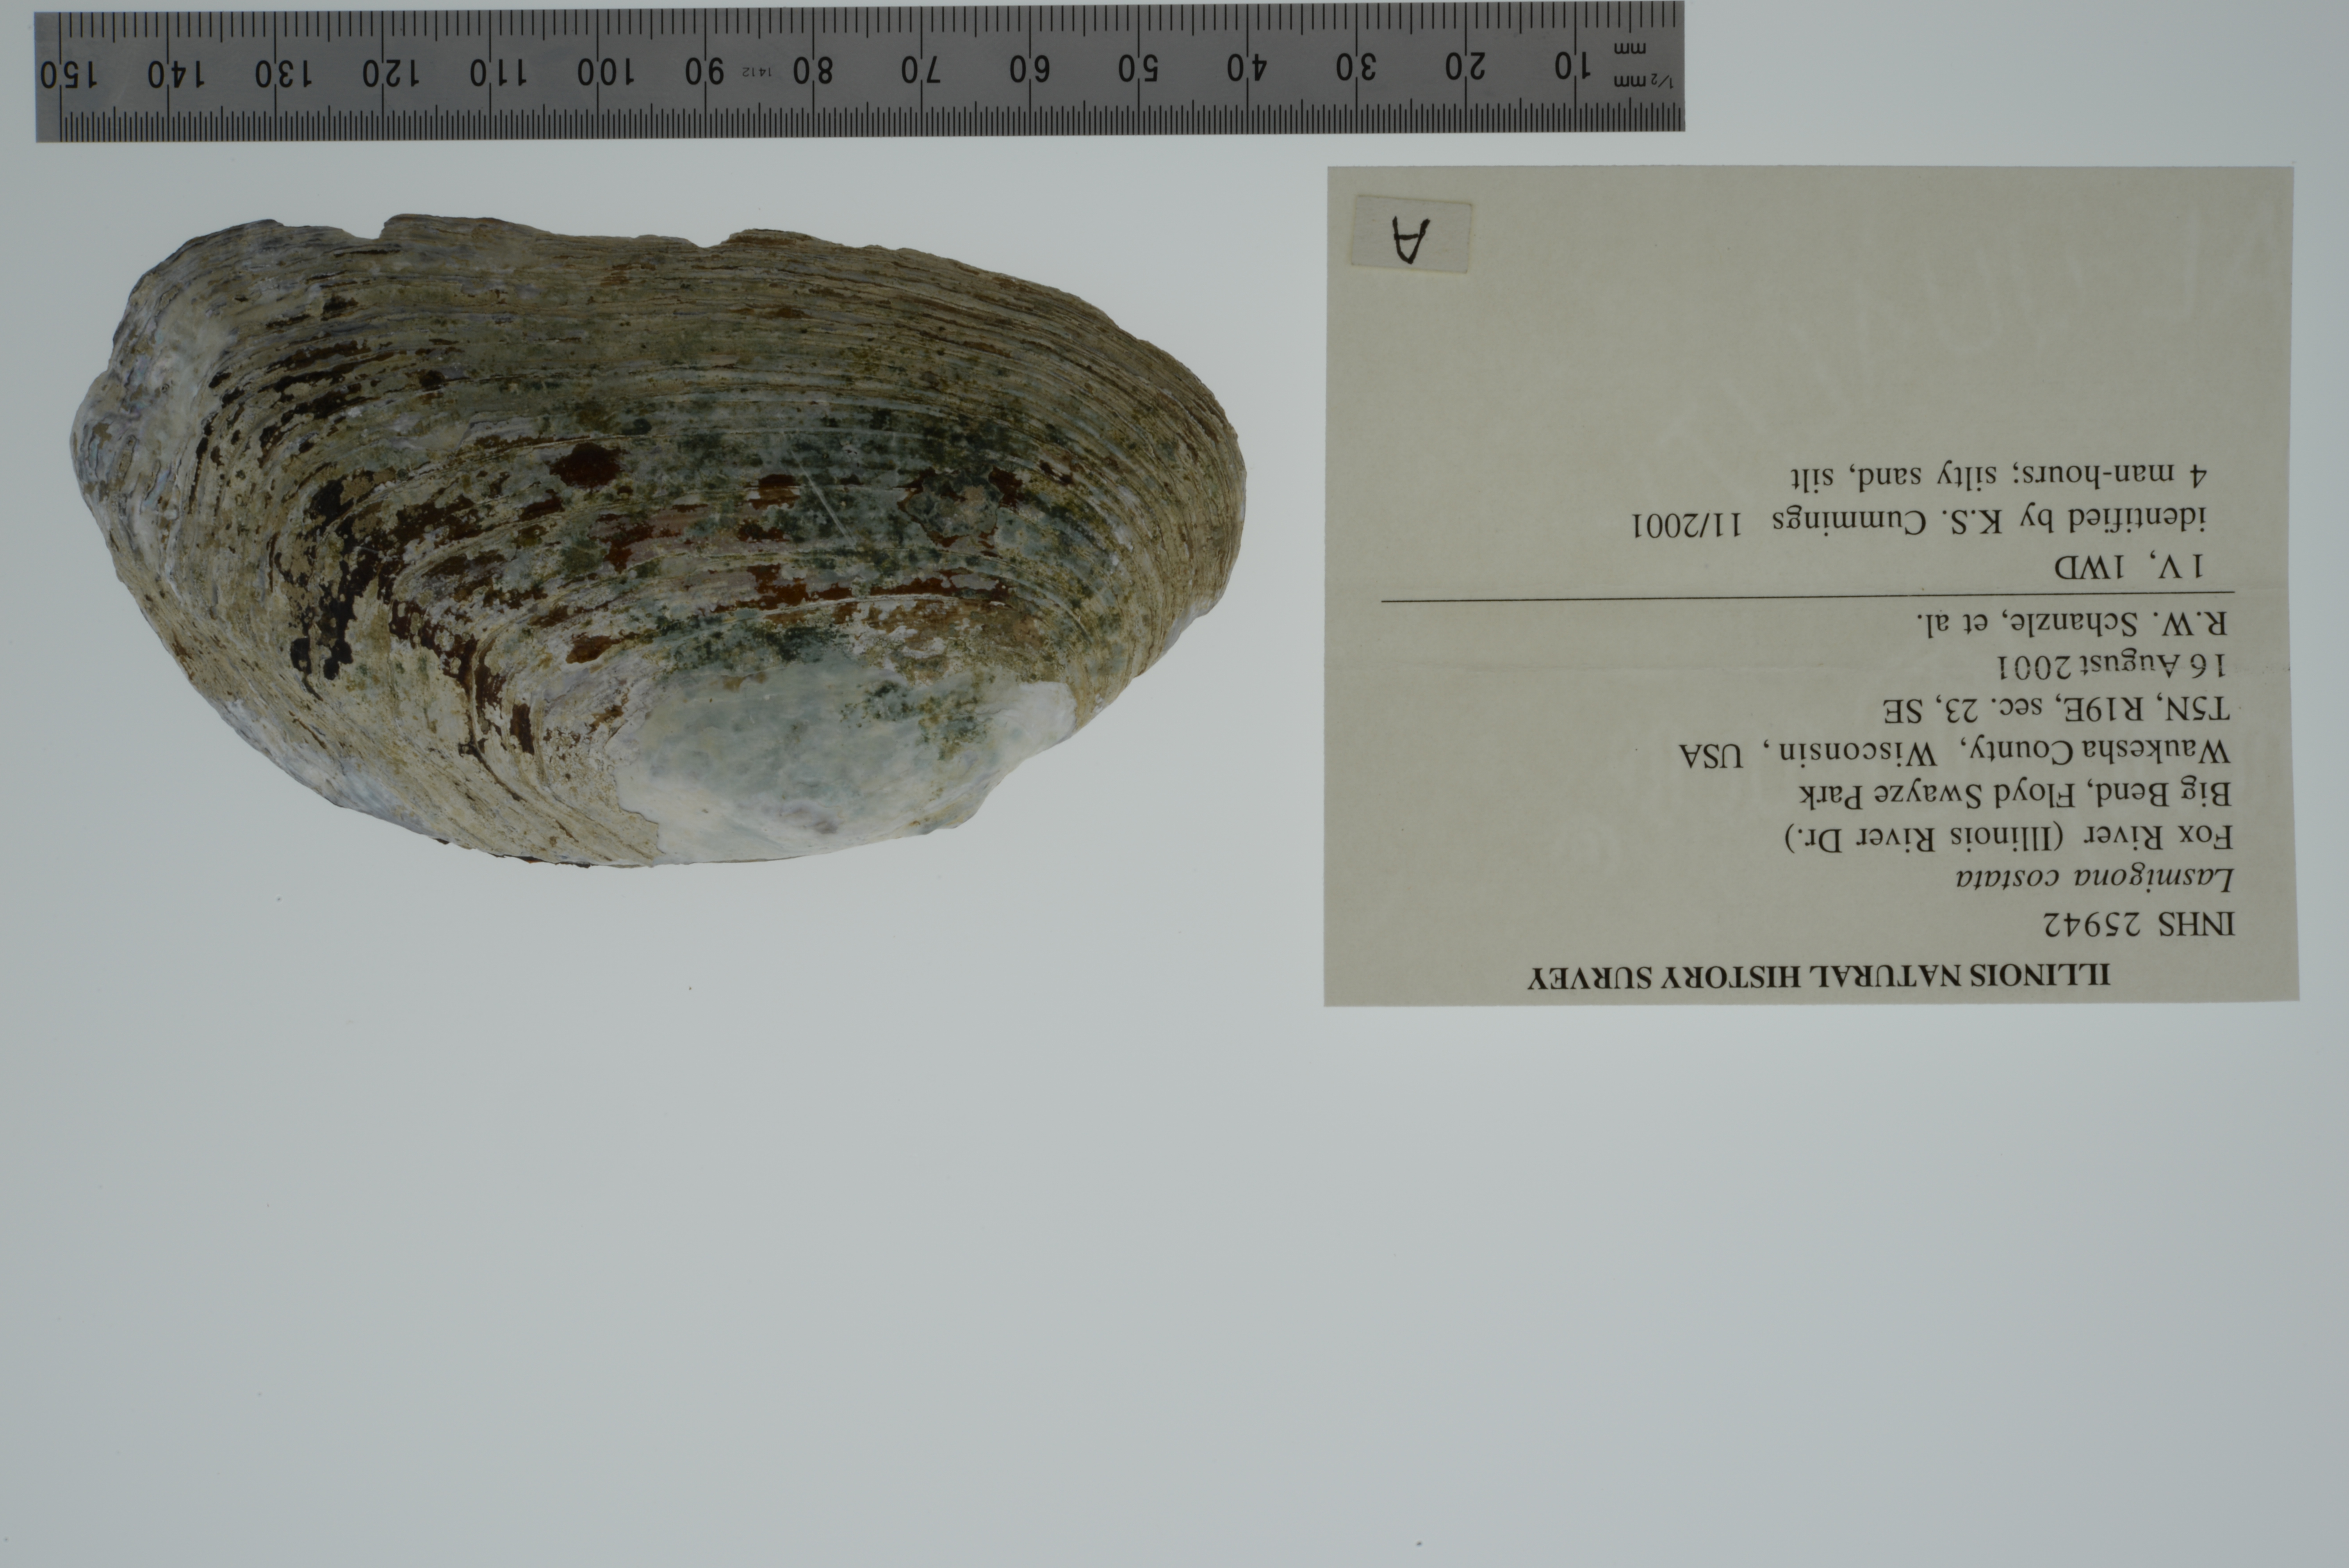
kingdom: Animalia
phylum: Mollusca
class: Bivalvia
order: Unionida
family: Unionidae
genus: Lasmigona
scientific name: Lasmigona costata
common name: Flutedshell
